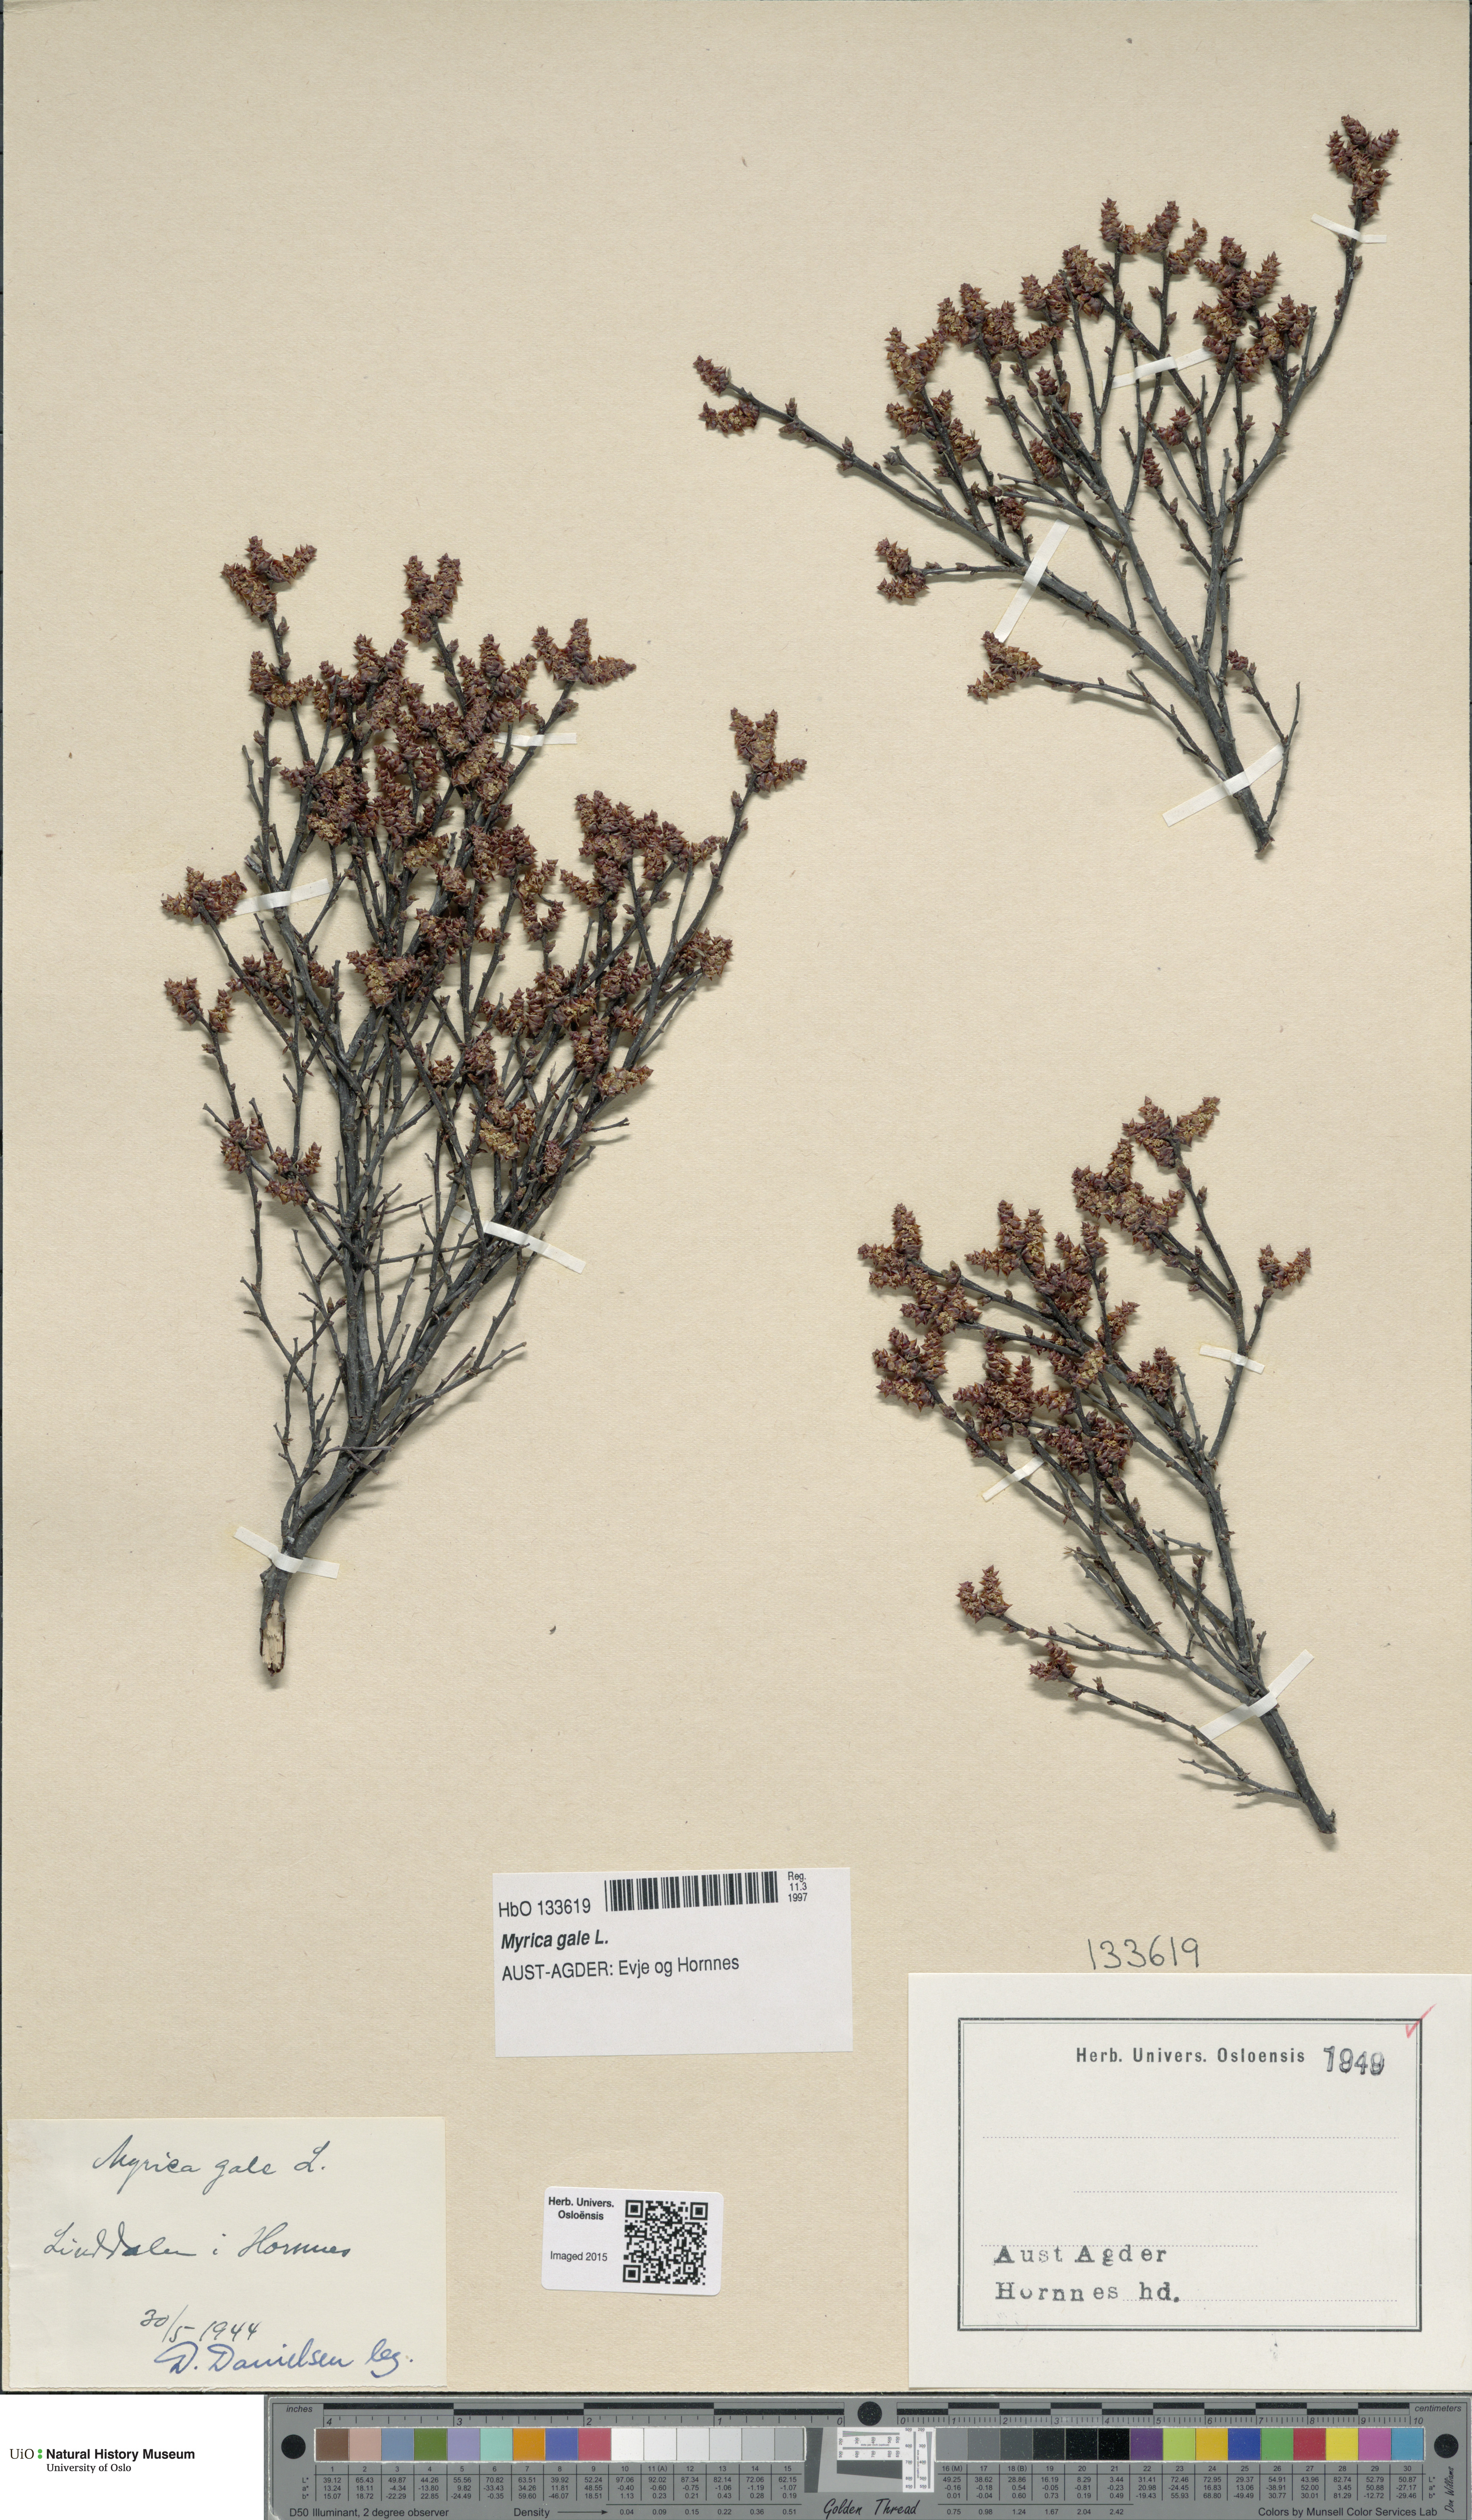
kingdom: Plantae
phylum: Tracheophyta
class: Magnoliopsida
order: Fagales
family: Myricaceae
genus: Myrica
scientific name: Myrica gale
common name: Sweet gale
